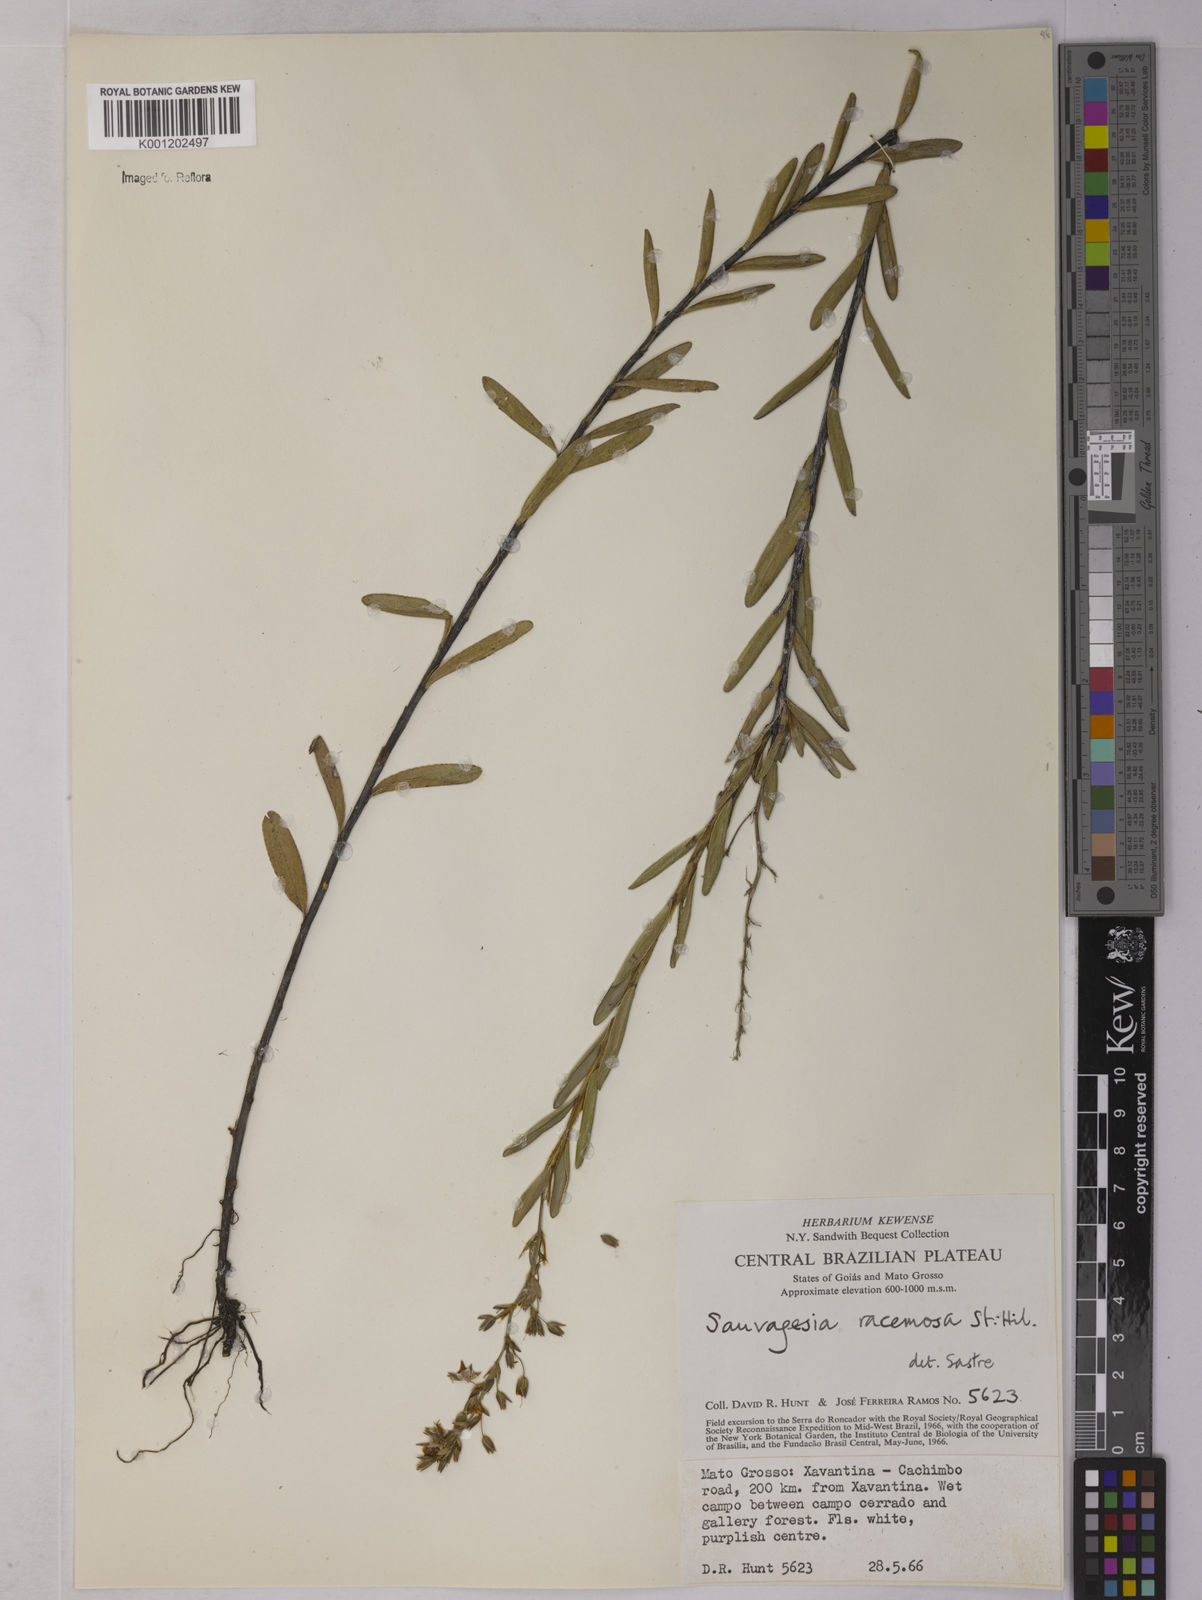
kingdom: Plantae
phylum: Tracheophyta
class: Magnoliopsida
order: Malpighiales
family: Ochnaceae
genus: Sauvagesia
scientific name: Sauvagesia racemosa
